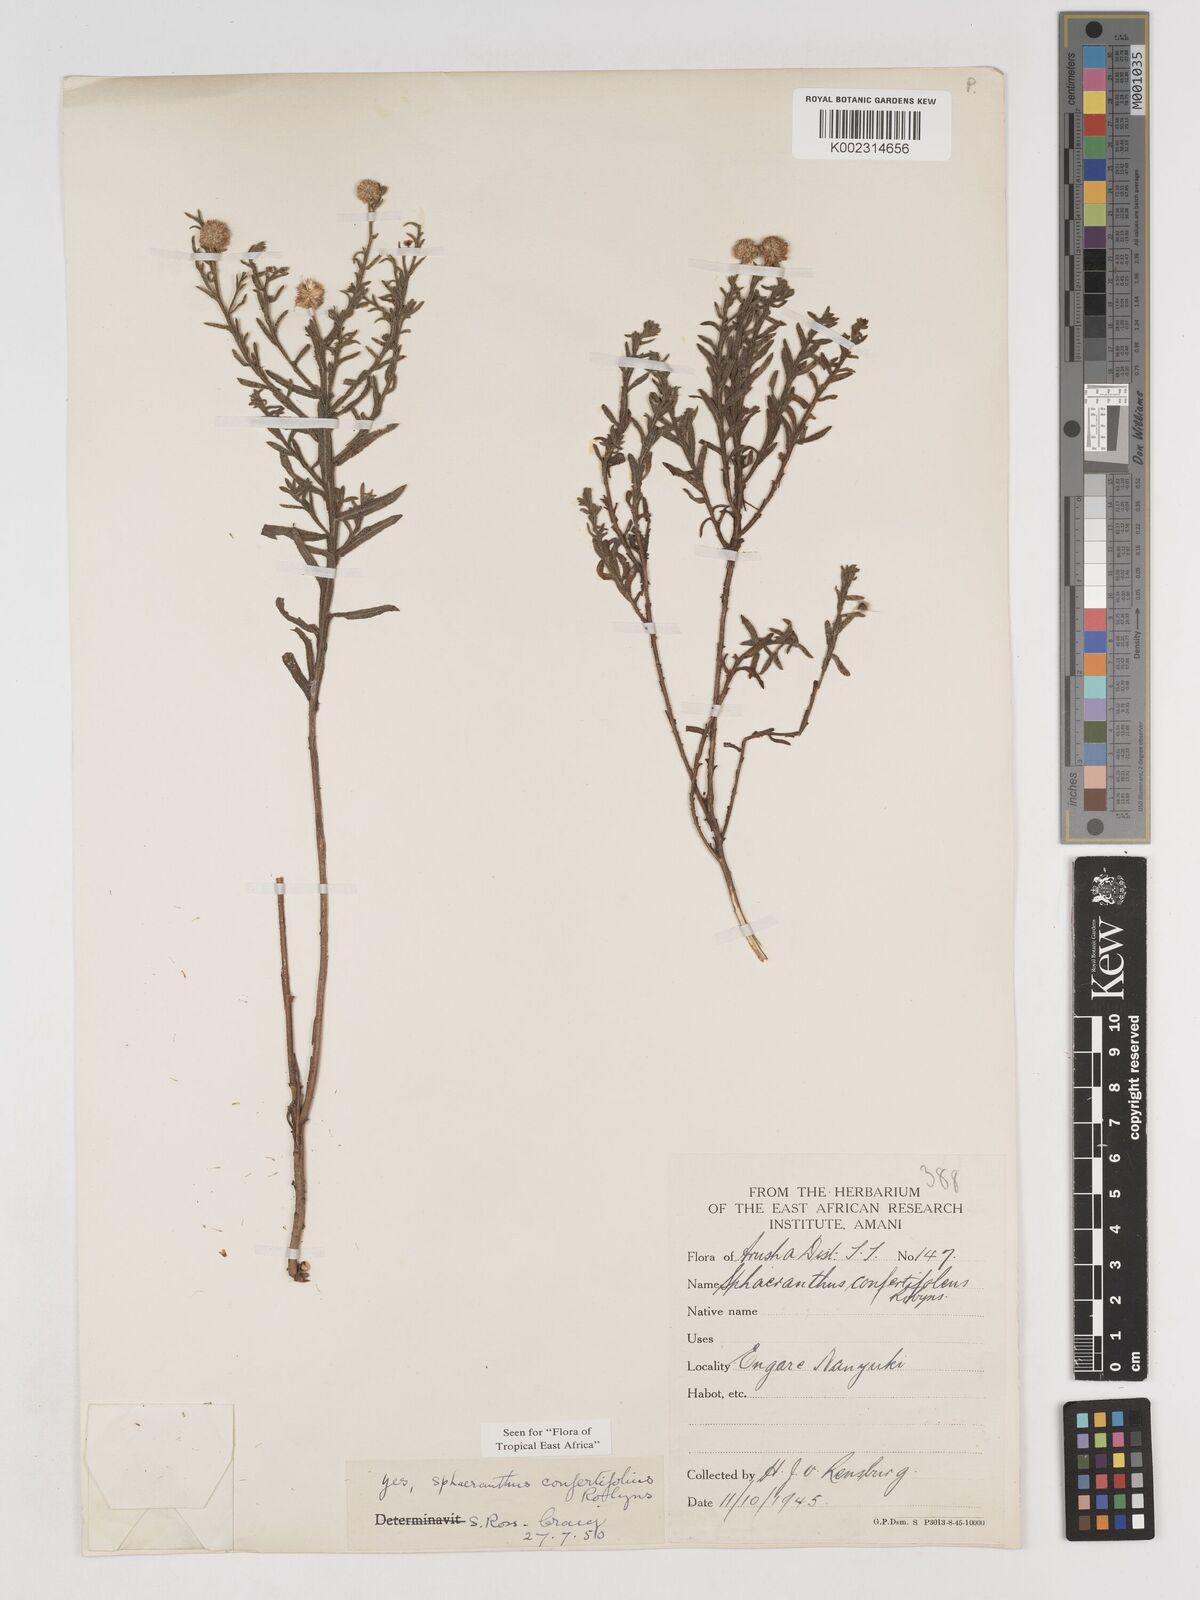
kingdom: Plantae
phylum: Tracheophyta
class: Magnoliopsida
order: Asterales
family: Asteraceae
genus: Sphaeranthus
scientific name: Sphaeranthus confertifolius
